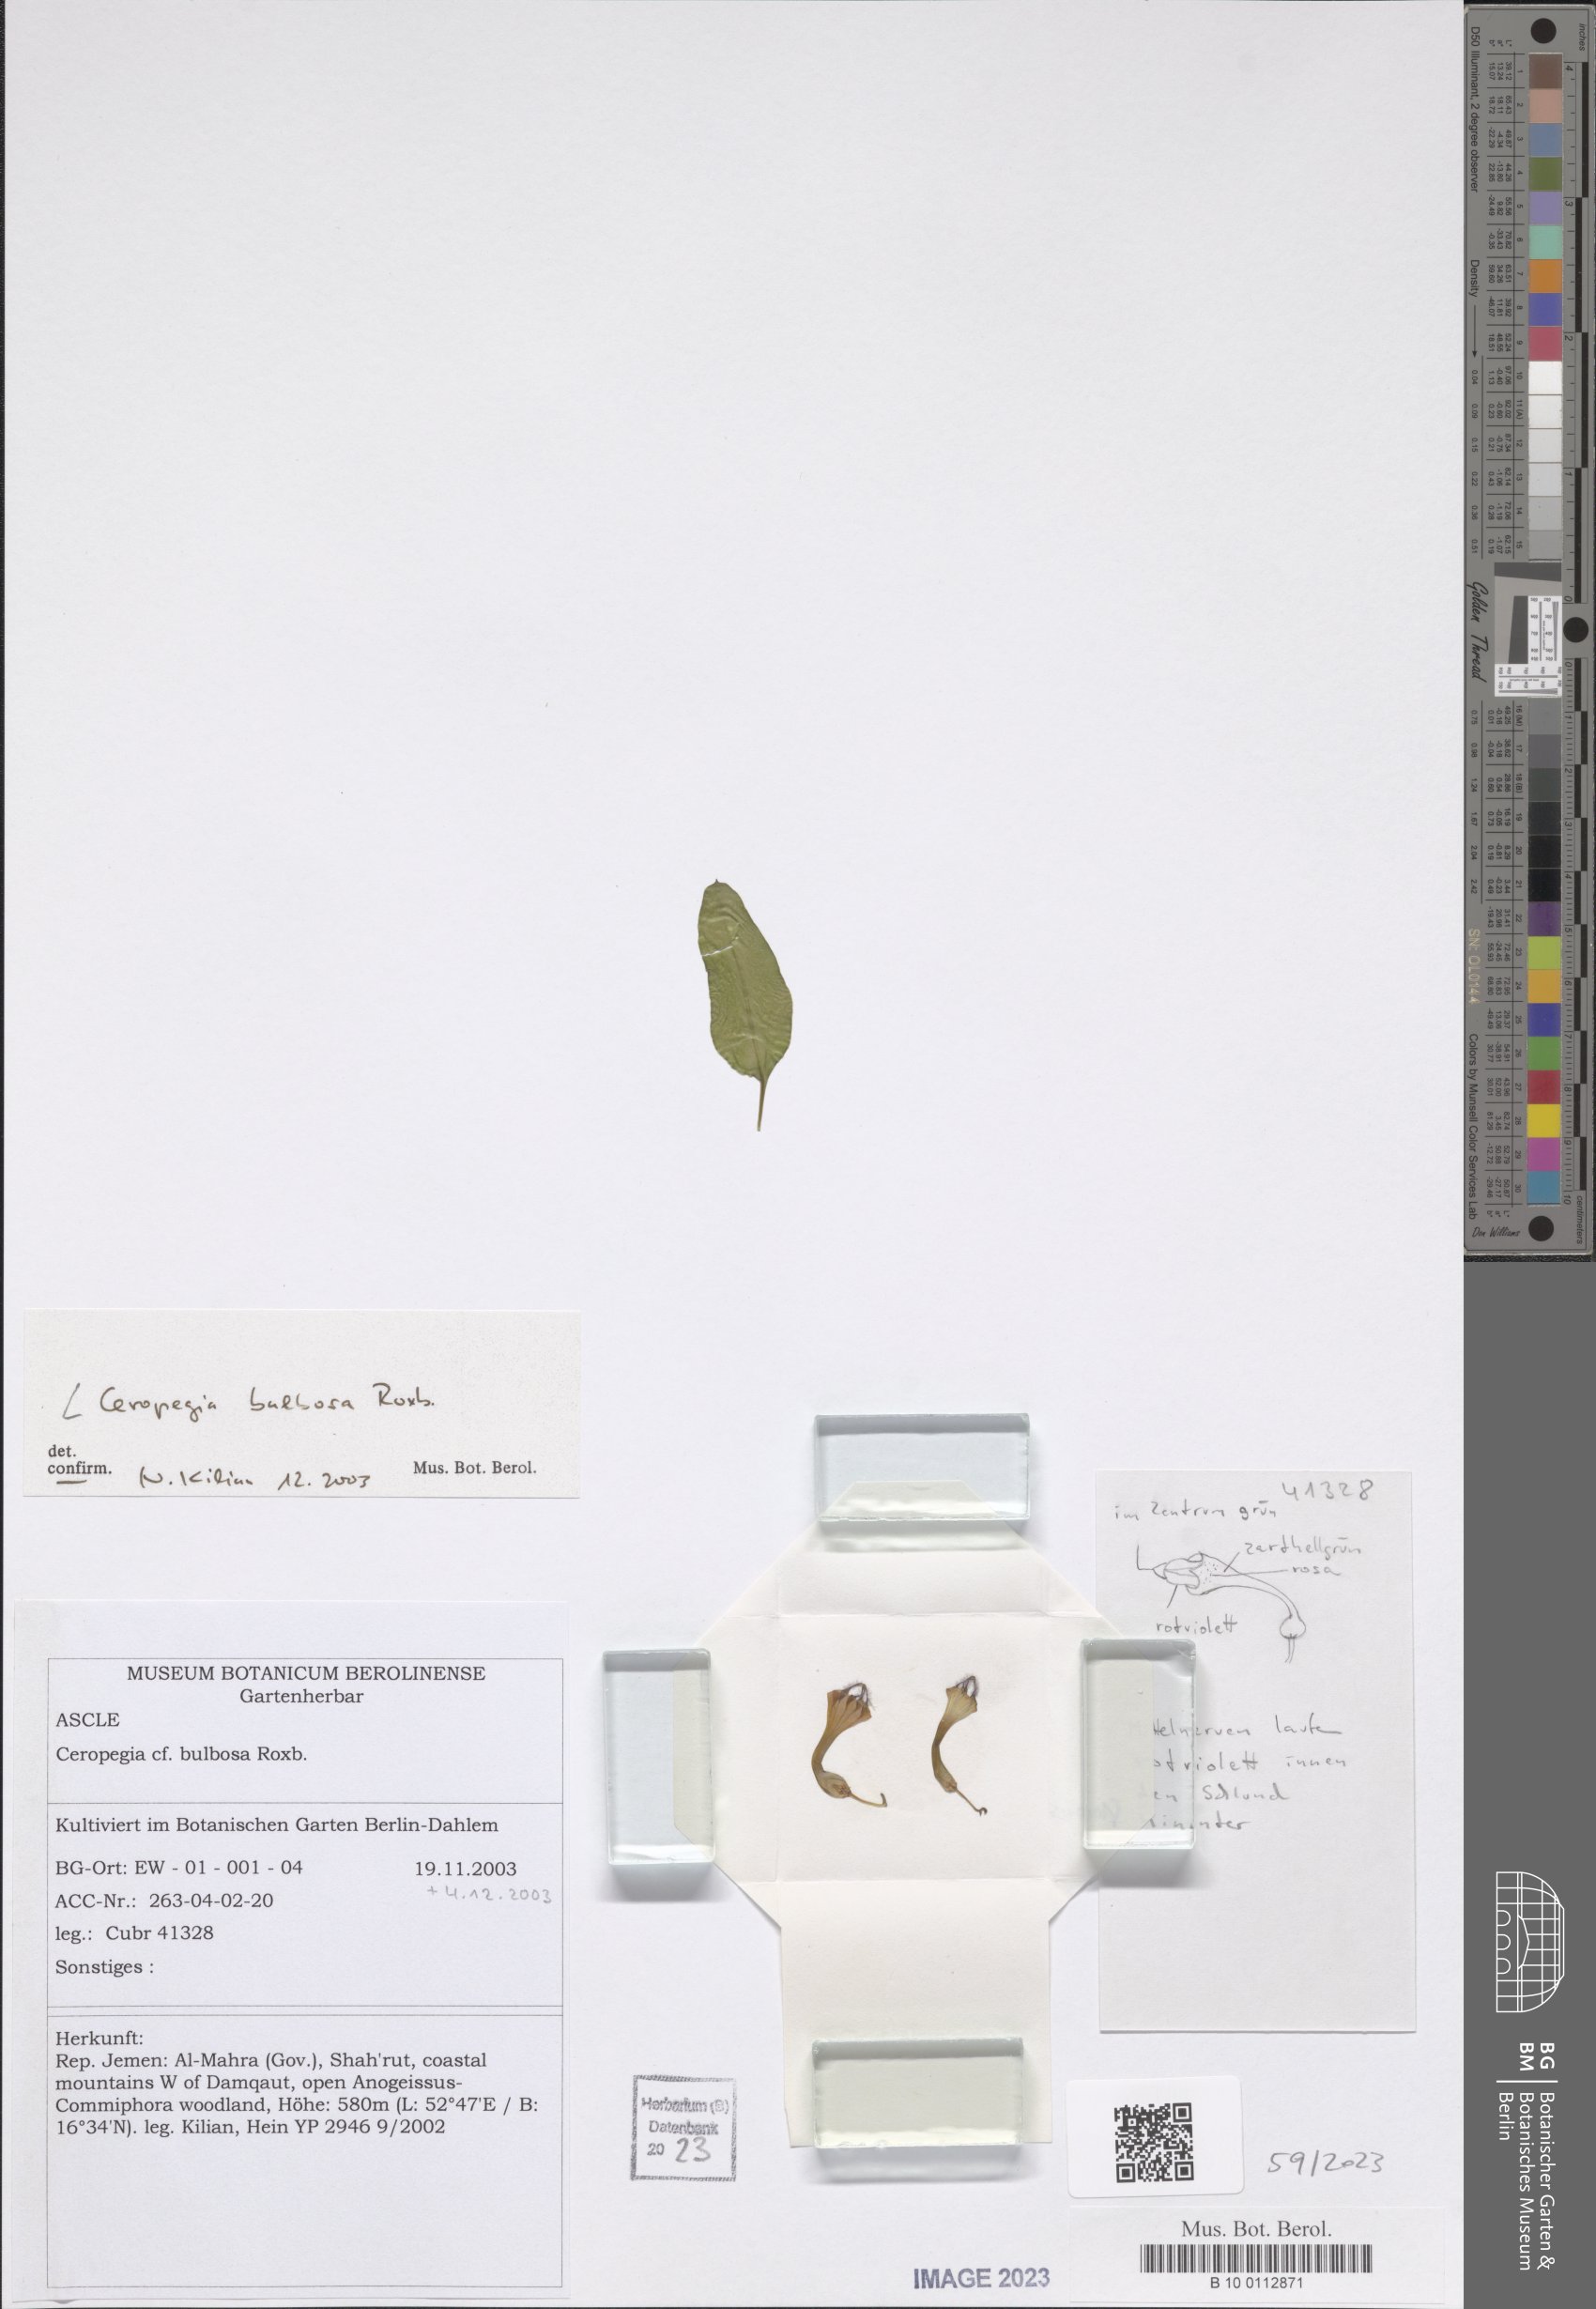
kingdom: Plantae
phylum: Tracheophyta
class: Magnoliopsida
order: Gentianales
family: Apocynaceae
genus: Ceropegia
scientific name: Ceropegia bulbosa
